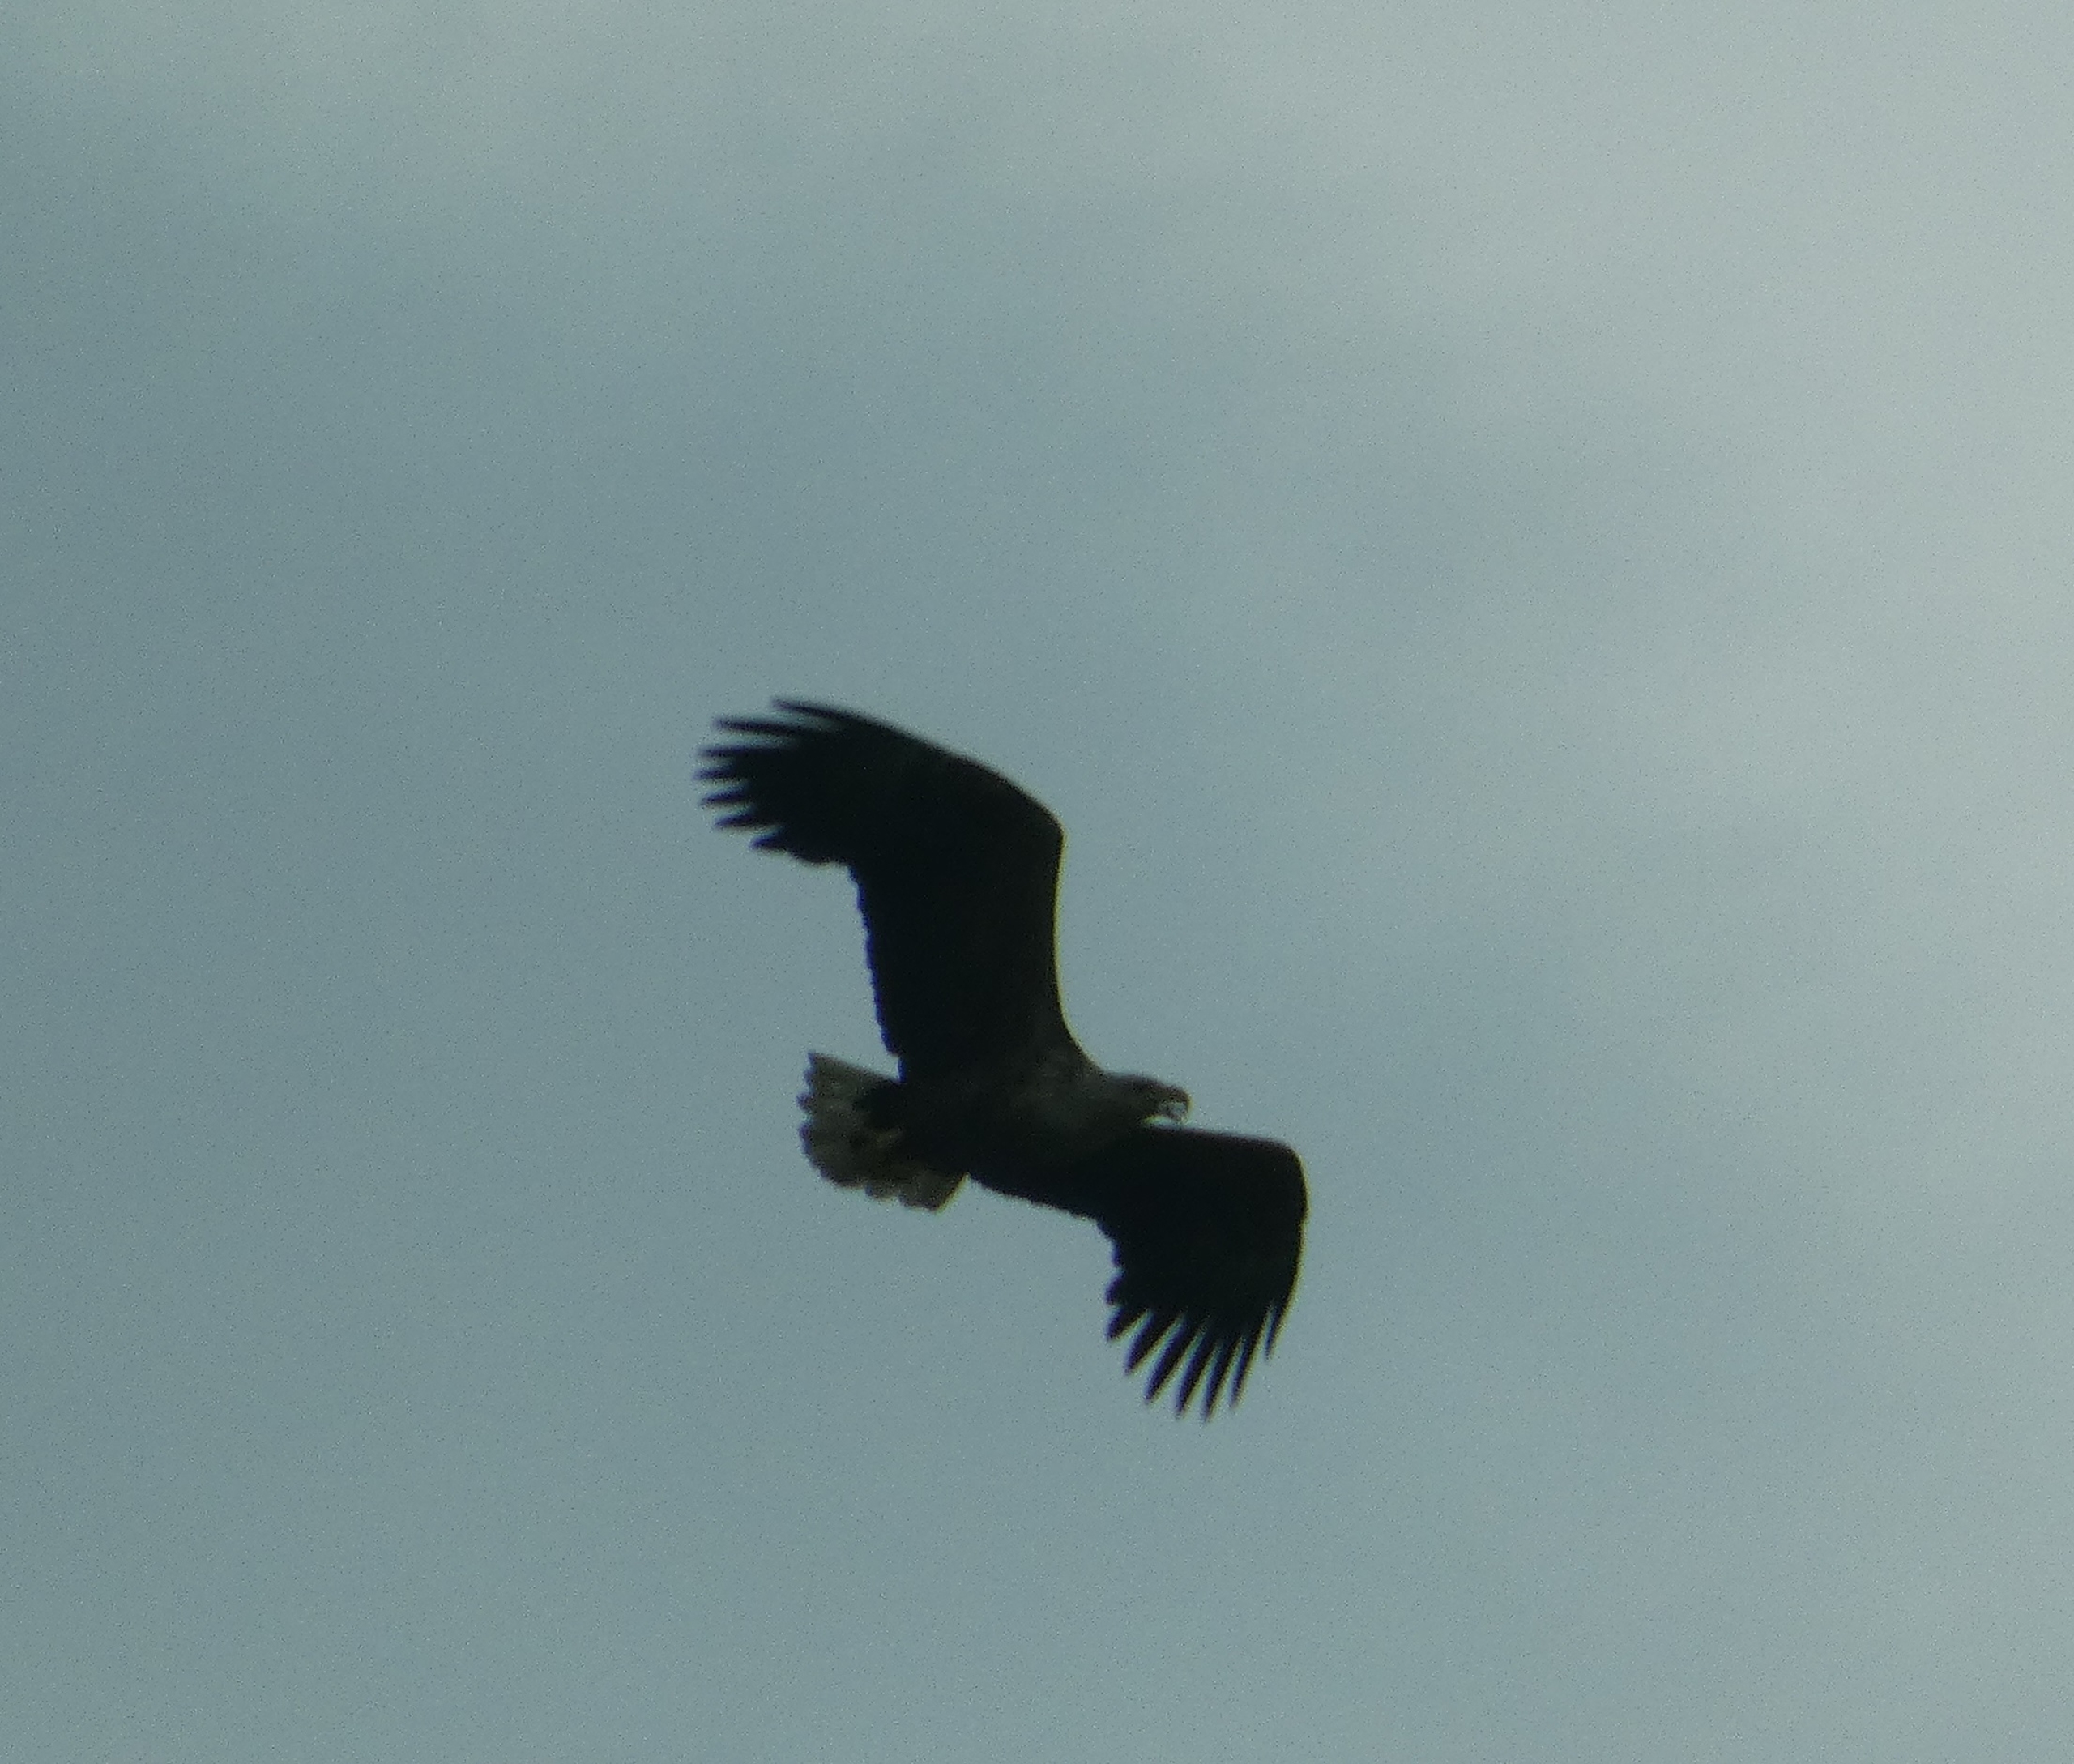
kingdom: Animalia
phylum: Chordata
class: Aves
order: Accipitriformes
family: Accipitridae
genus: Haliaeetus
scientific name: Haliaeetus albicilla
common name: Havørn
